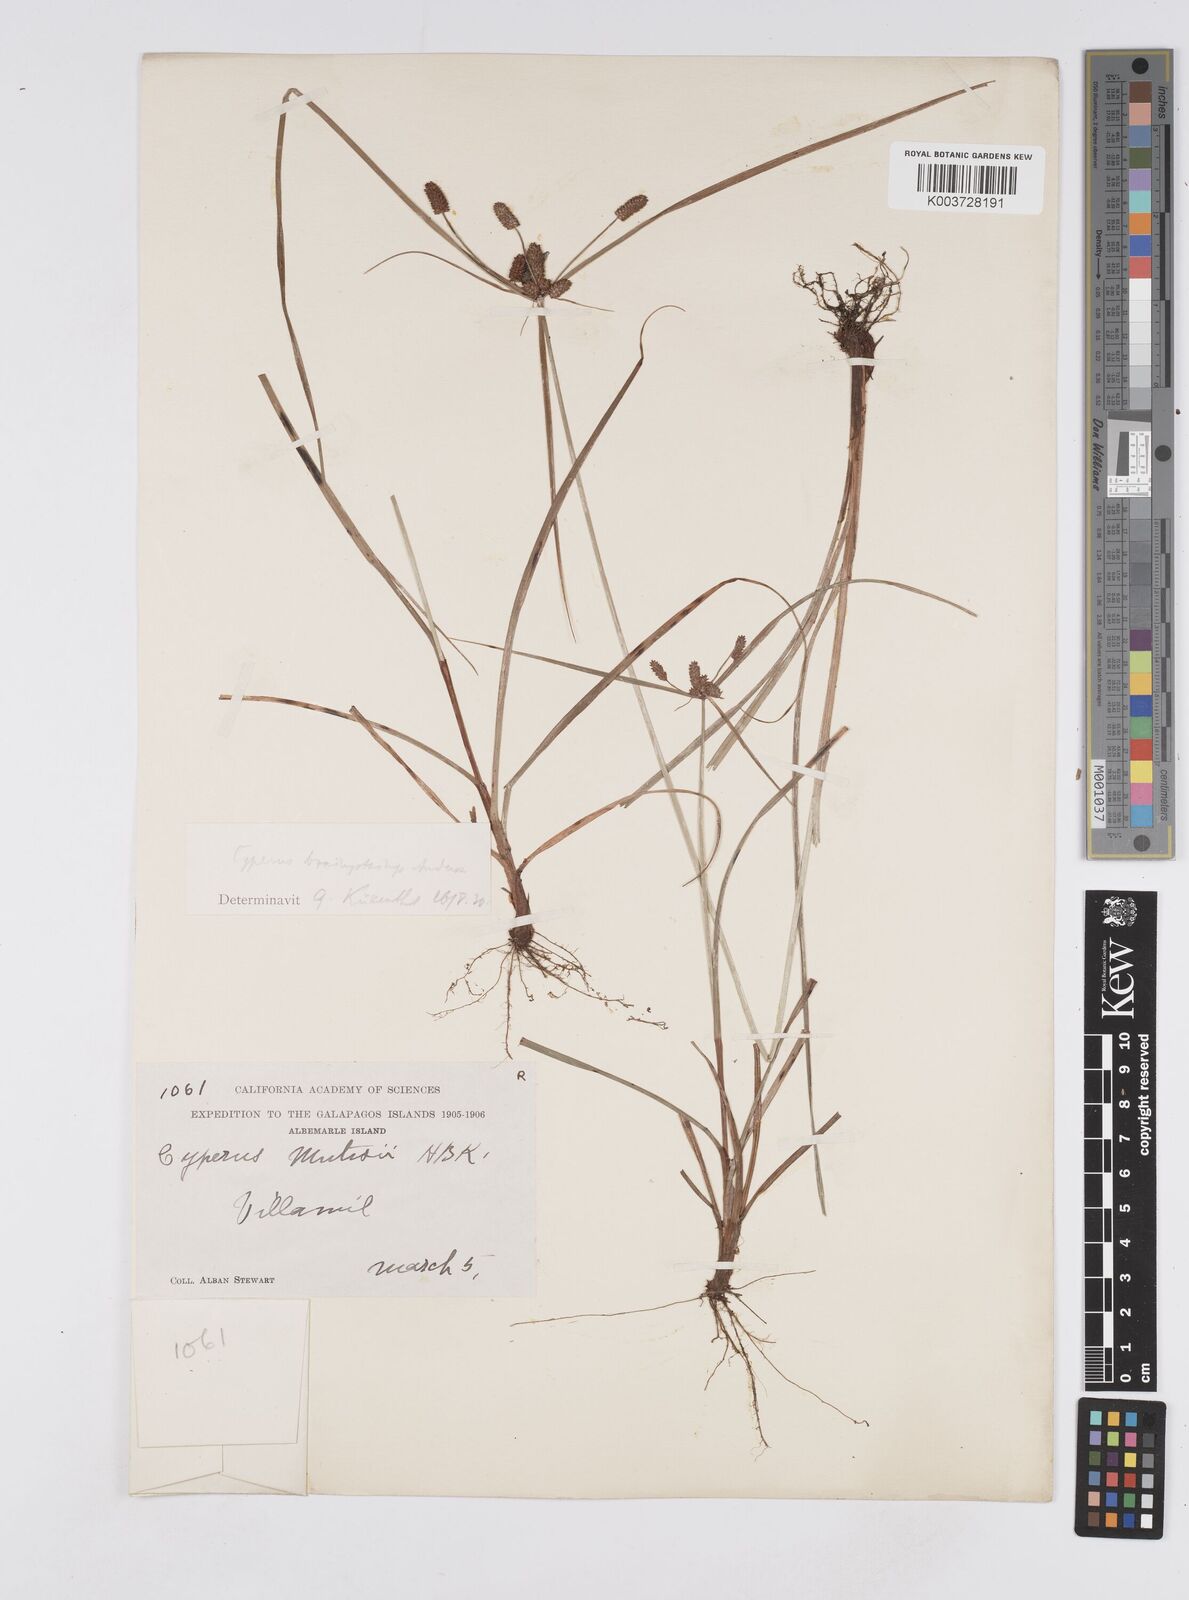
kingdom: Plantae
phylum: Tracheophyta
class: Liliopsida
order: Poales
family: Cyperaceae
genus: Cyperus
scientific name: Cyperus anderssonii
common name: Andersson's sedge
